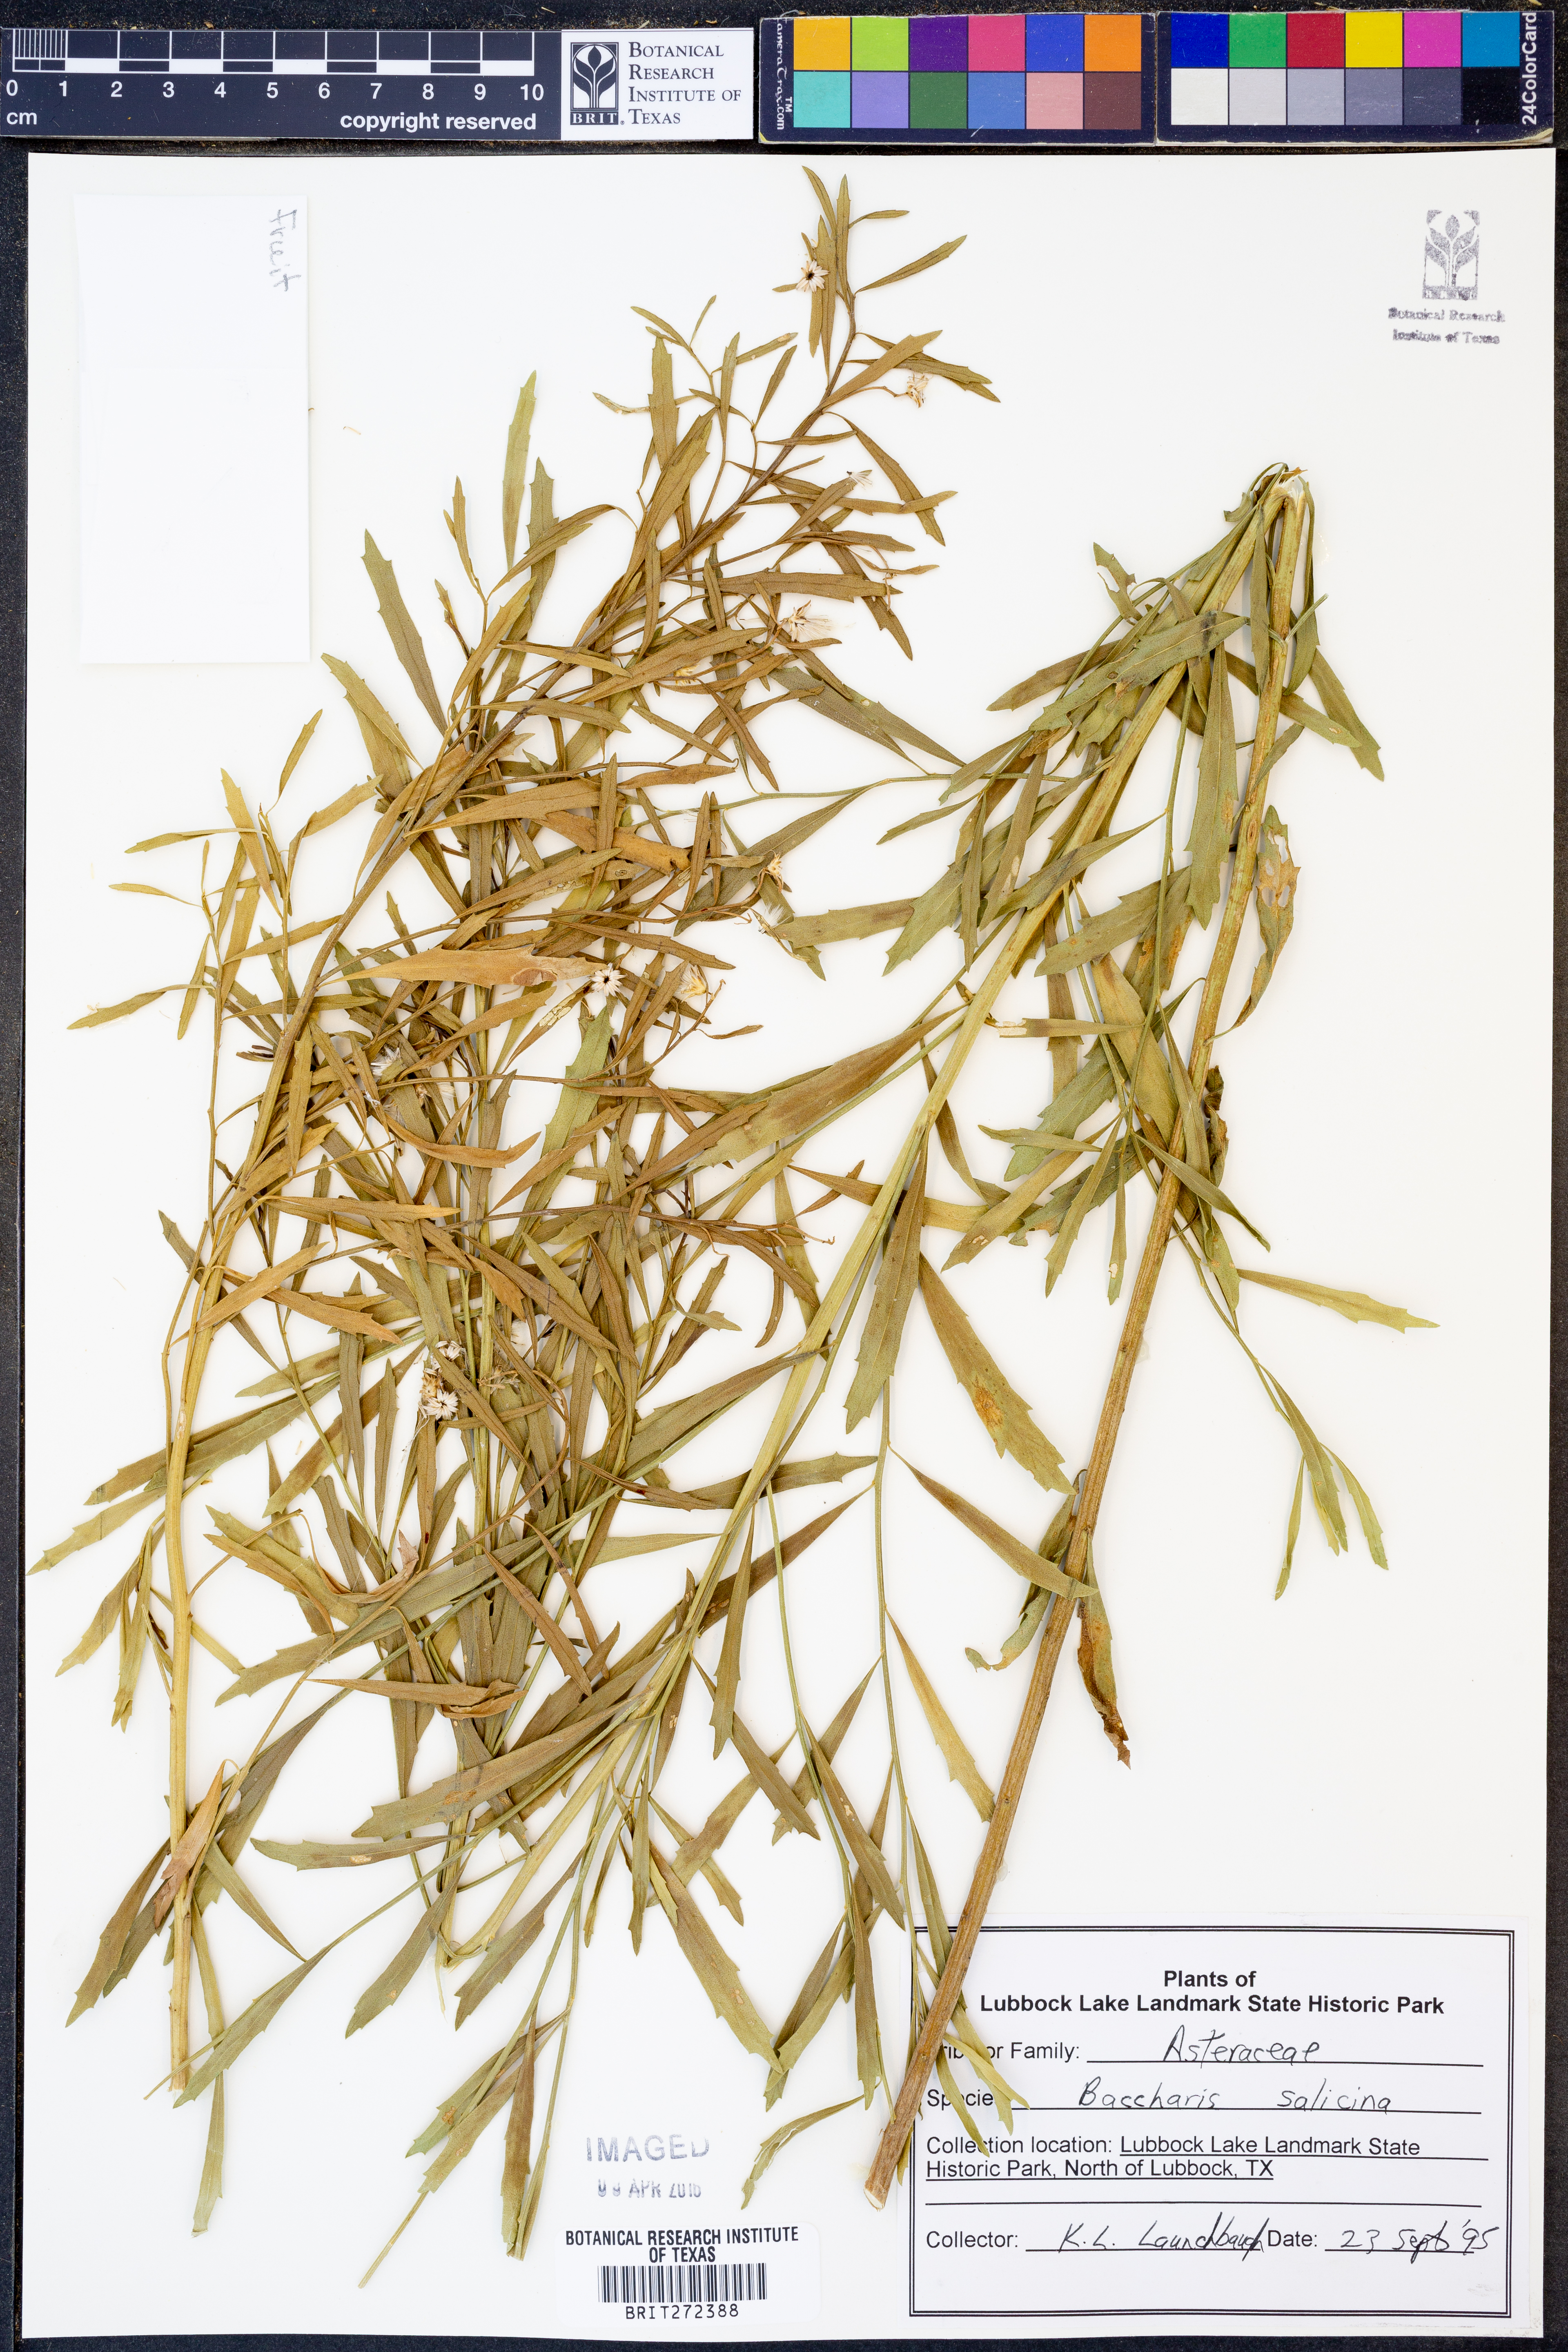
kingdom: Plantae
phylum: Tracheophyta
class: Magnoliopsida
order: Asterales
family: Asteraceae
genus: Baccharis
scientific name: Baccharis salicina
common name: Willow baccharis
